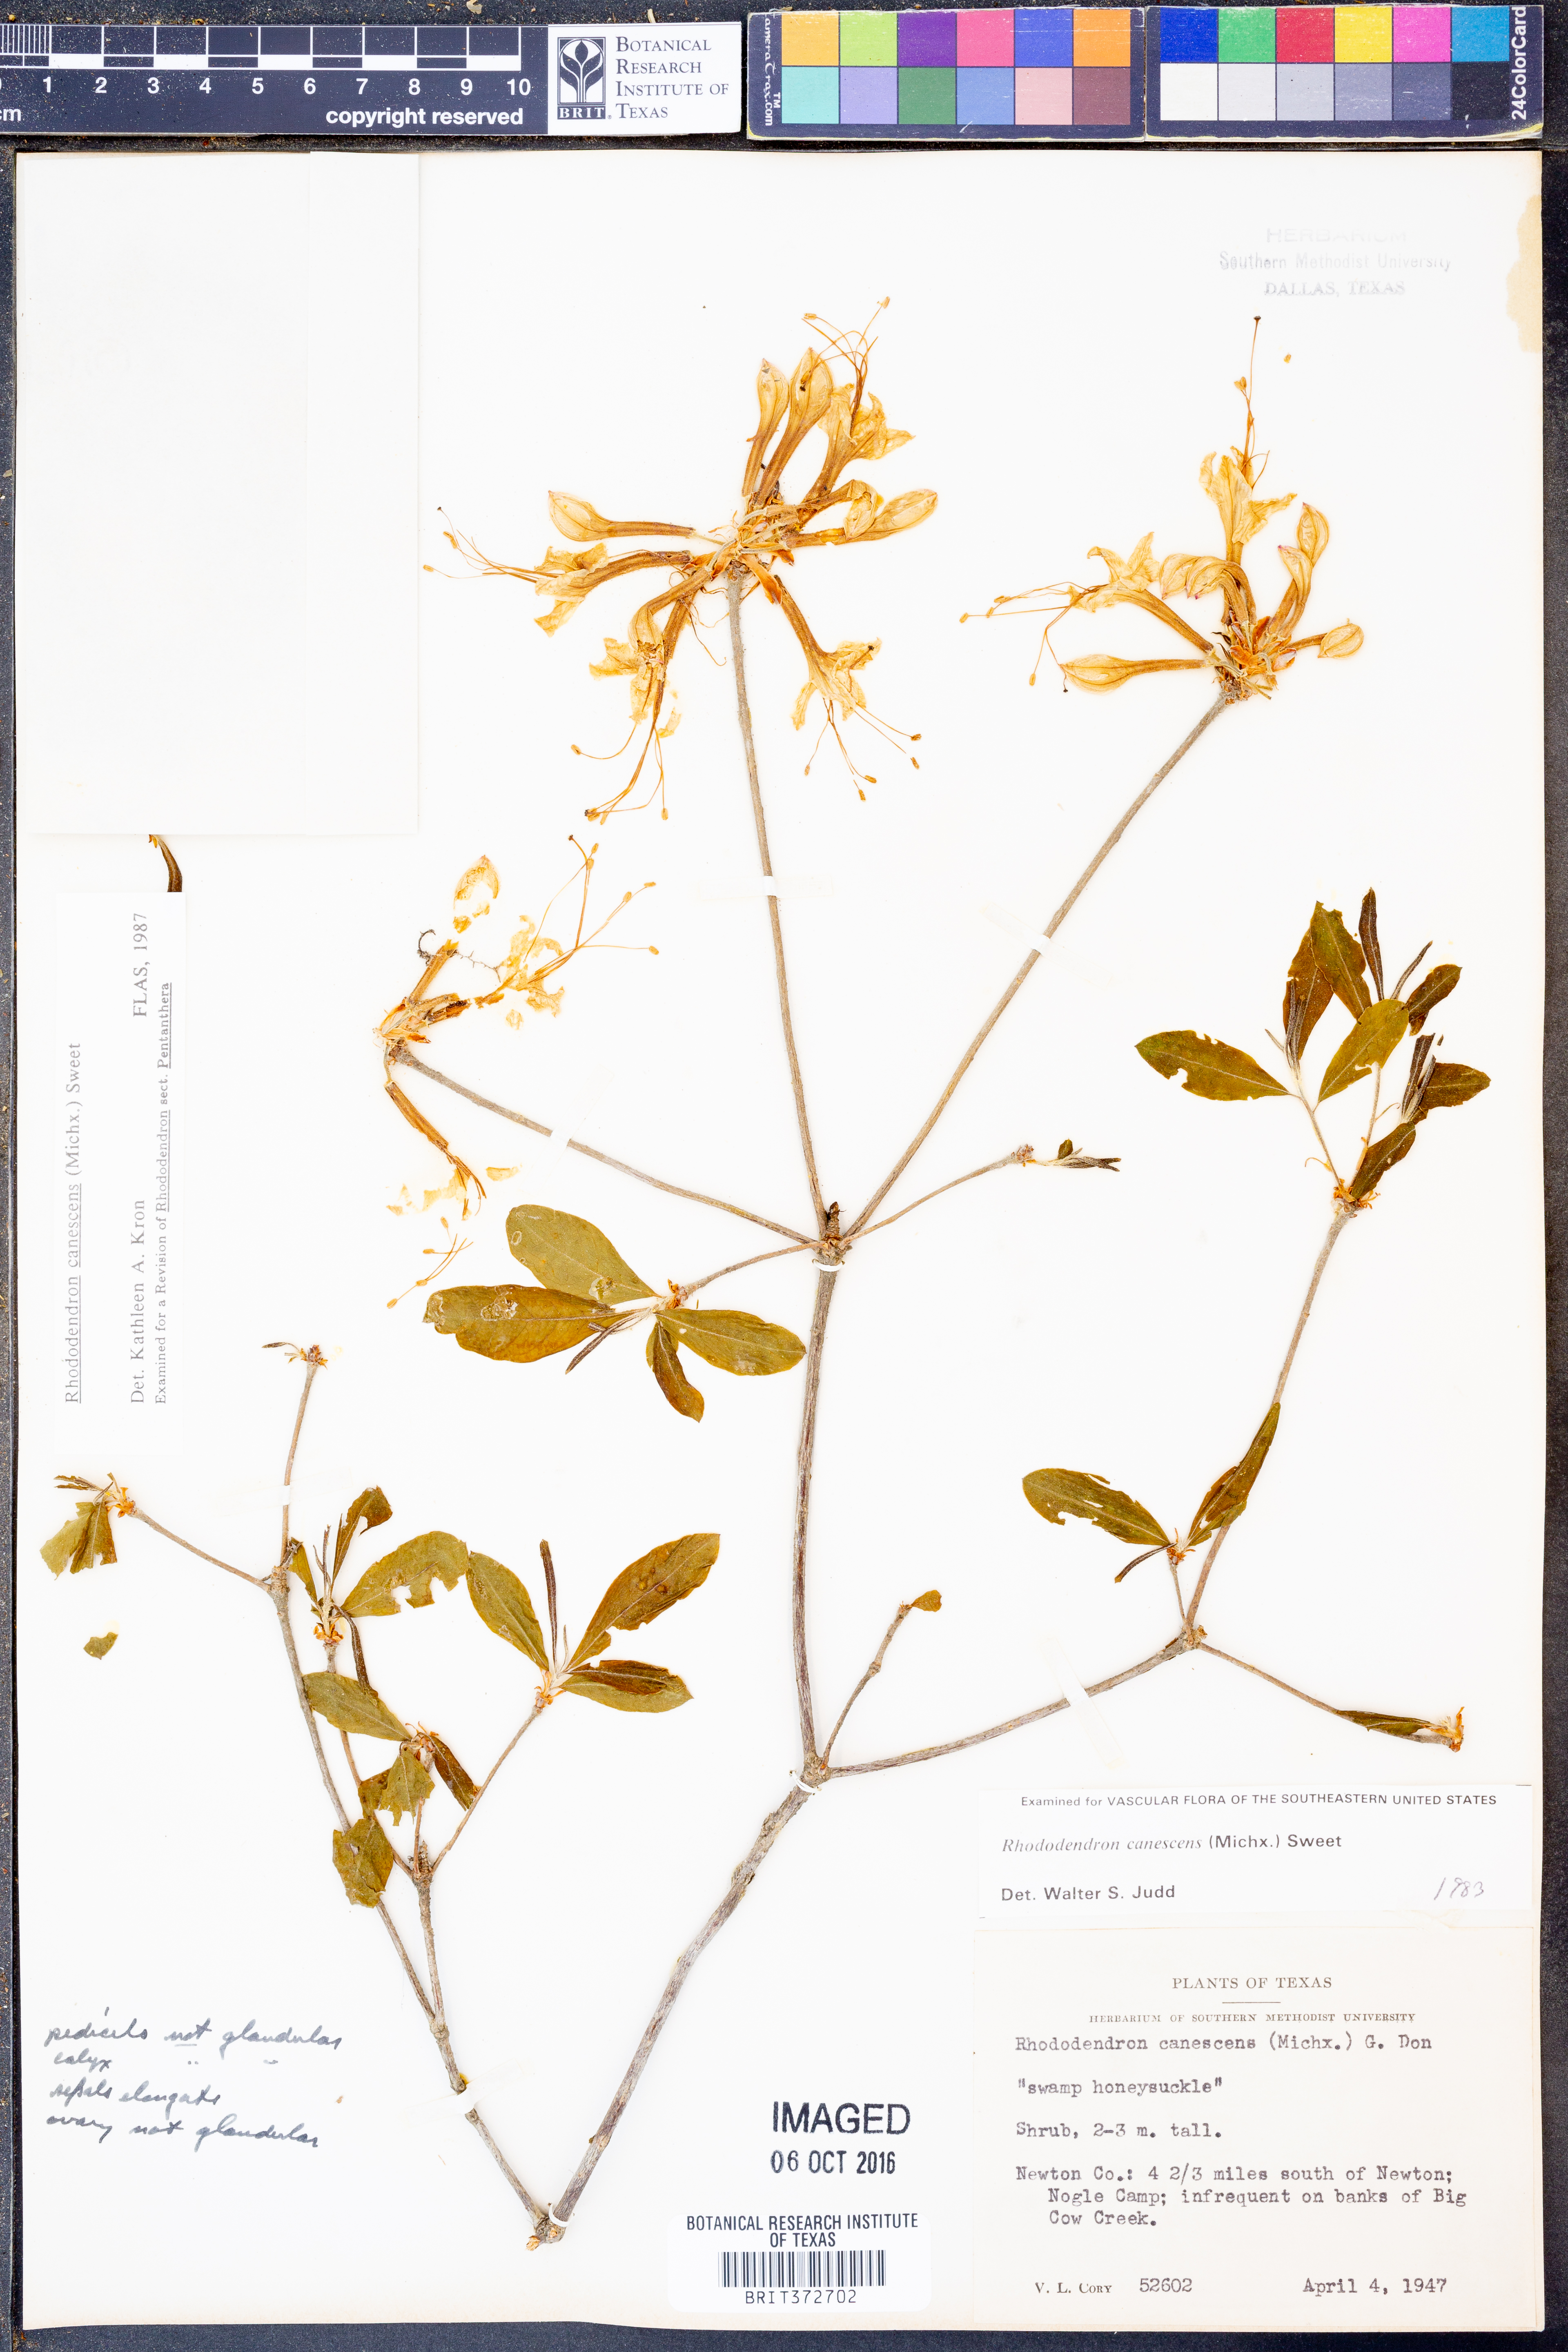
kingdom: Plantae
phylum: Tracheophyta
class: Magnoliopsida
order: Ericales
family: Ericaceae
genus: Rhododendron
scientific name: Rhododendron canescens
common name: Mountain azalea
